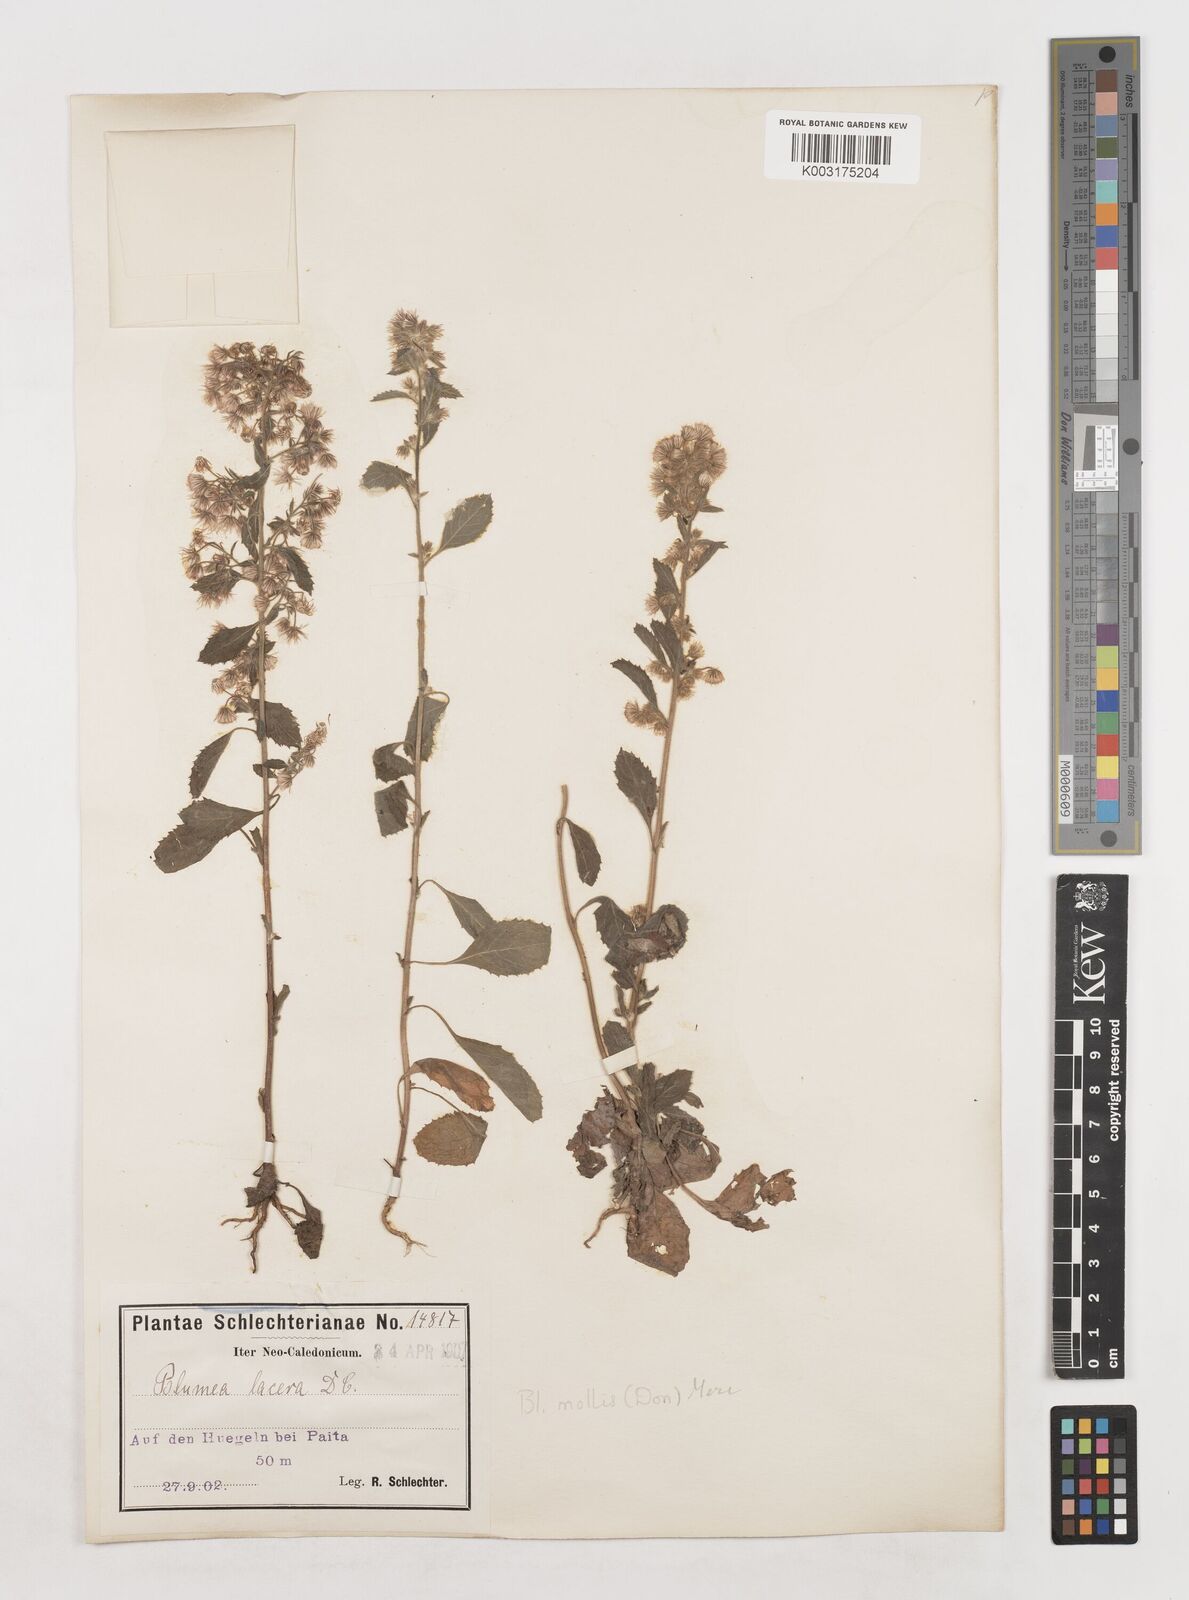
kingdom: Plantae
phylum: Tracheophyta
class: Magnoliopsida
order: Asterales
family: Asteraceae
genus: Blumea
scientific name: Blumea lacera
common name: Malay blumea
